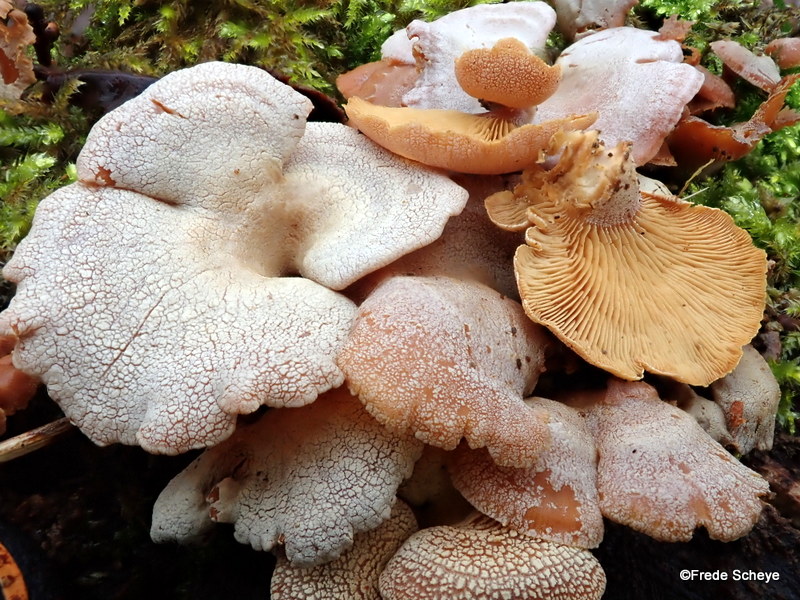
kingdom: Fungi
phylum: Basidiomycota
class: Agaricomycetes
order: Agaricales
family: Mycenaceae
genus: Panellus
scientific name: Panellus stipticus
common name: kliddet epaulethat
